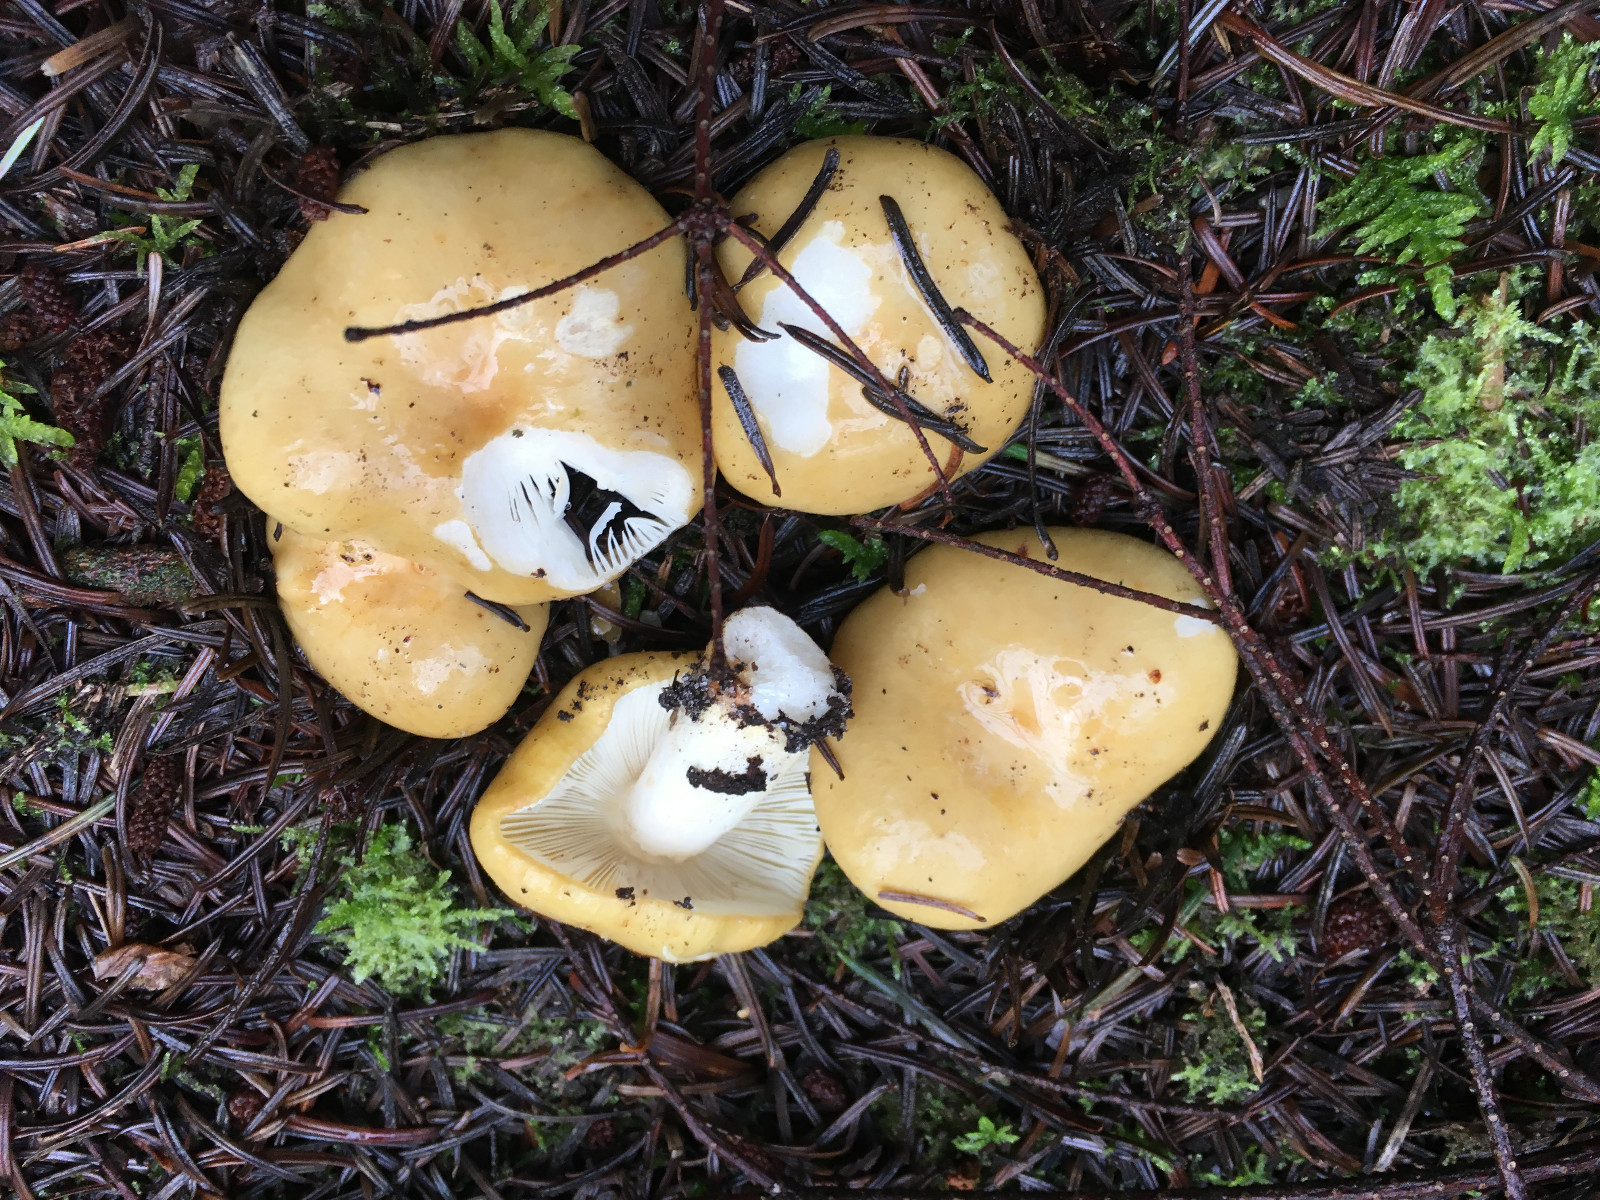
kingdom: Fungi
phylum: Basidiomycota
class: Agaricomycetes
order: Russulales
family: Russulaceae
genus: Russula
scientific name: Russula ochroleuca
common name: okkergul skørhat
